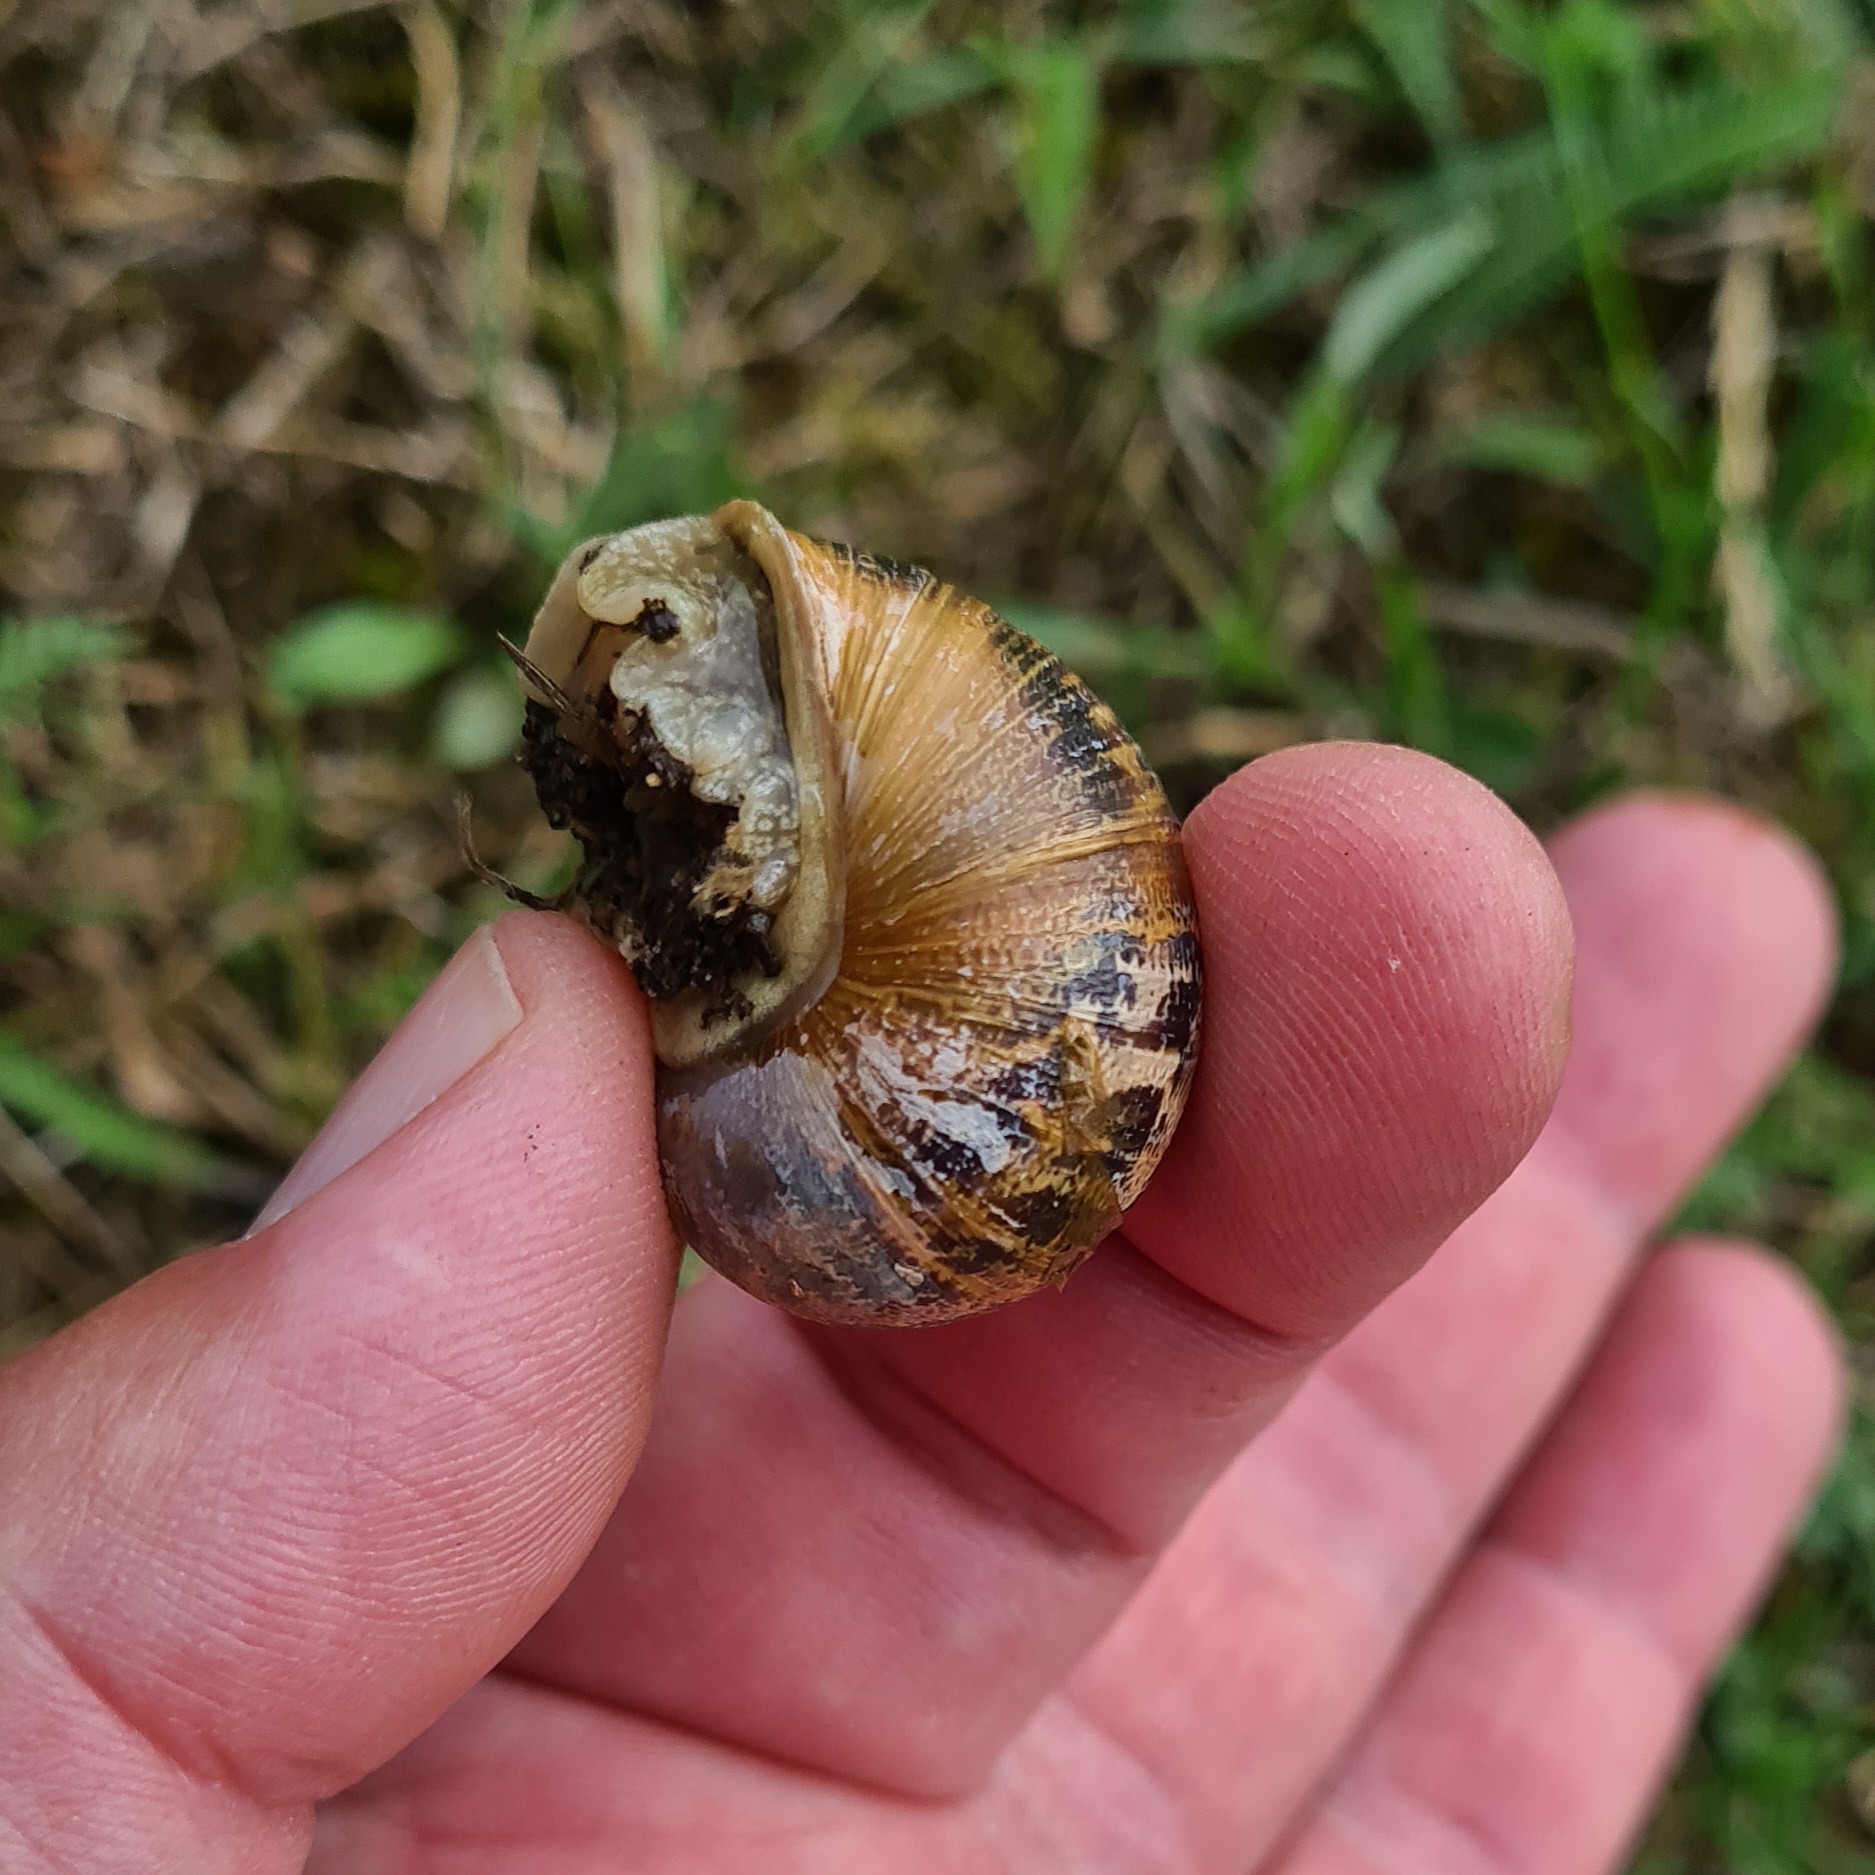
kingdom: Animalia
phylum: Mollusca
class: Gastropoda
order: Stylommatophora
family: Helicidae
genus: Cornu
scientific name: Cornu aspersum
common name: Plettet voldsnegl
